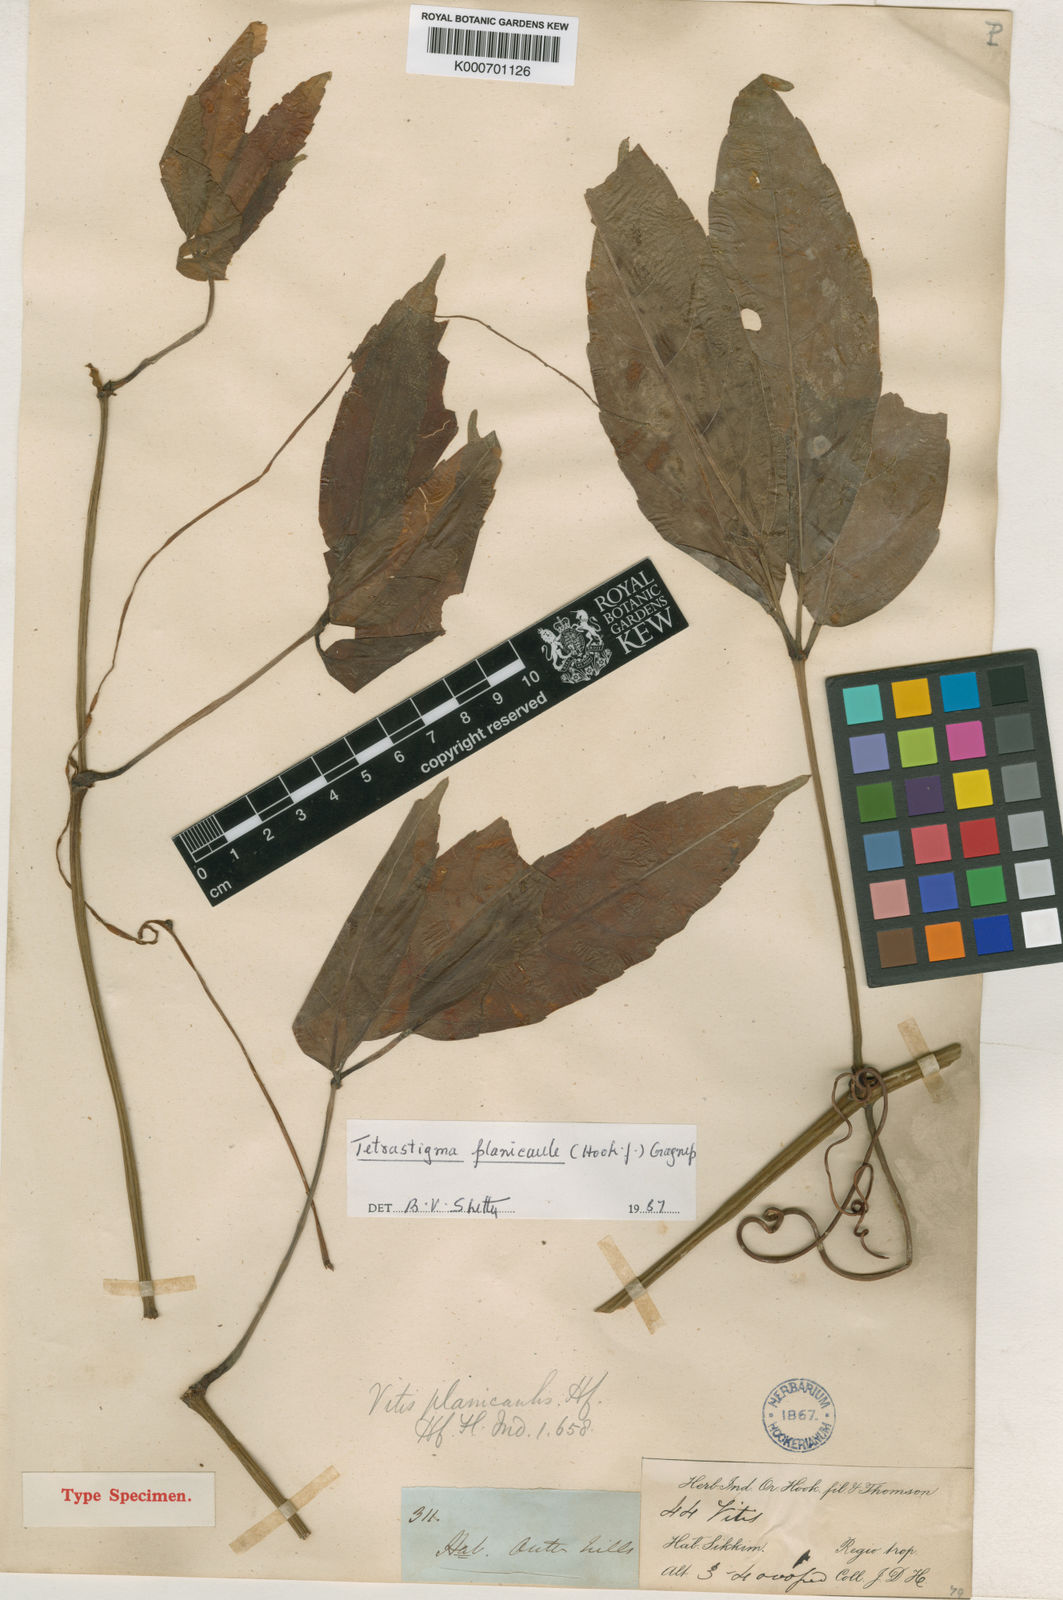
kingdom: Plantae
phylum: Tracheophyta
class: Magnoliopsida
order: Vitales
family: Vitaceae
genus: Tetrastigma
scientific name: Tetrastigma planicaule
